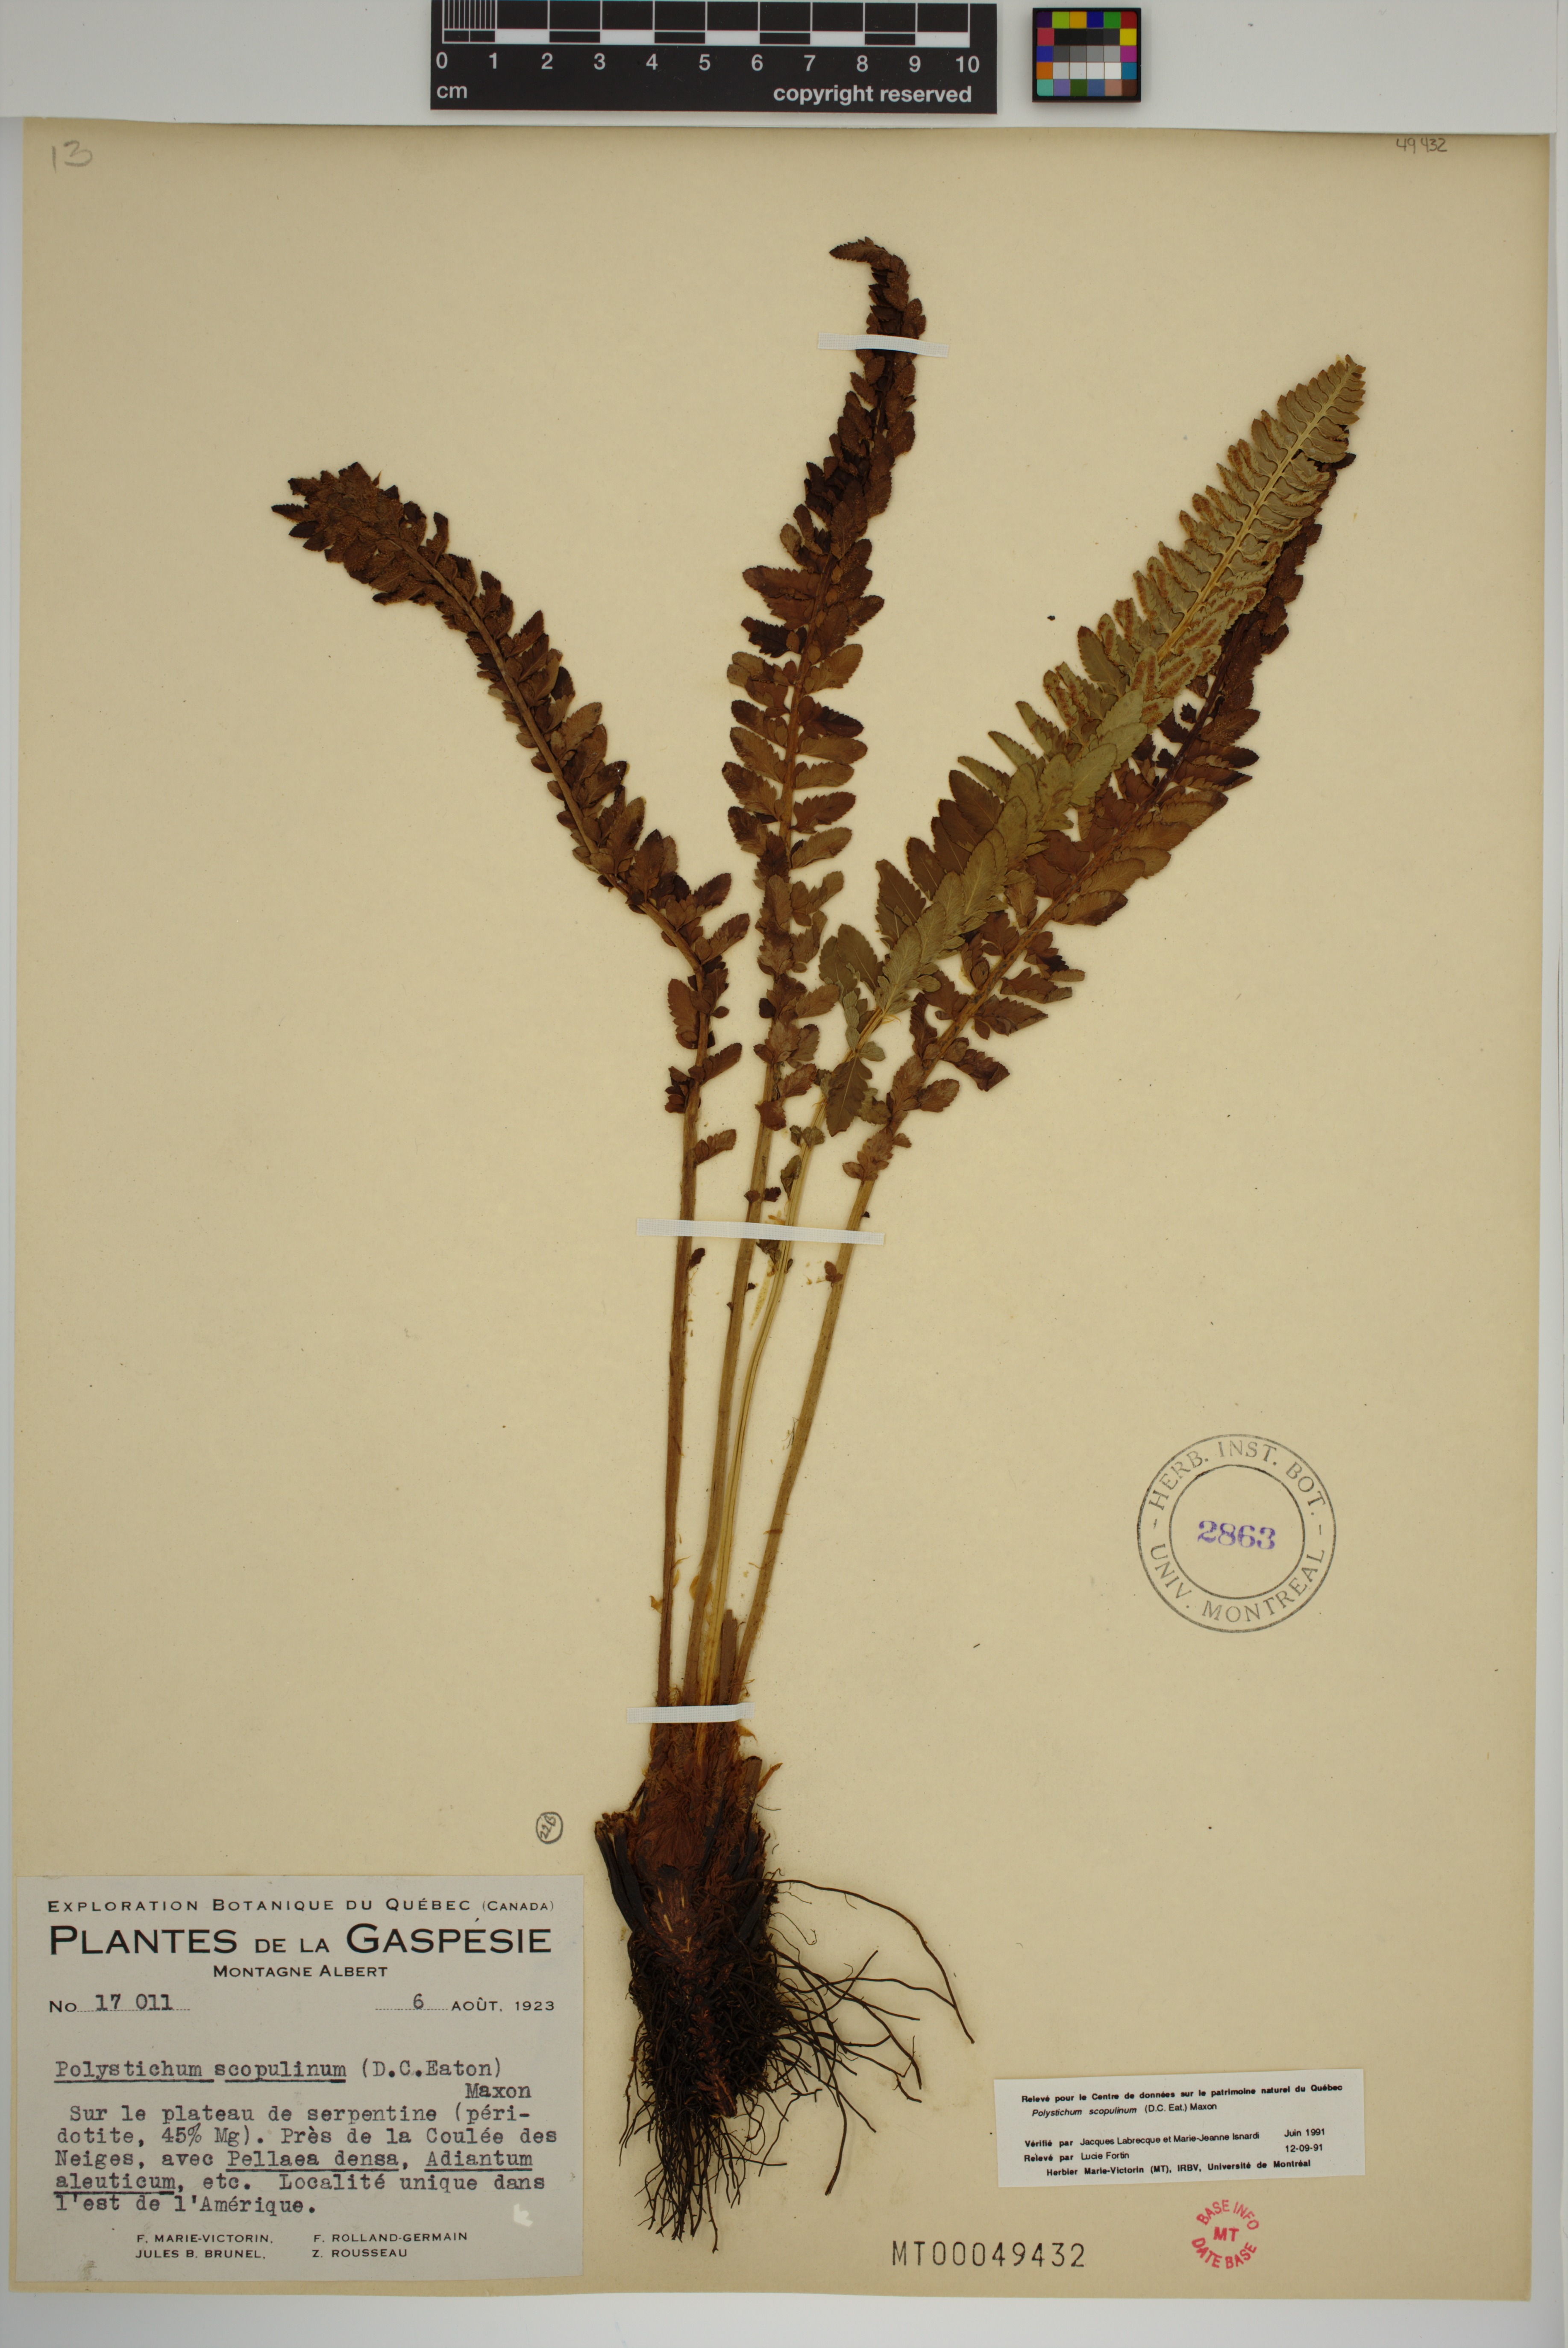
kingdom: Plantae
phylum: Tracheophyta
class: Polypodiopsida
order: Polypodiales
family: Dryopteridaceae
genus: Polystichum
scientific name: Polystichum scopulinum
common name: Eaton's shield fern
